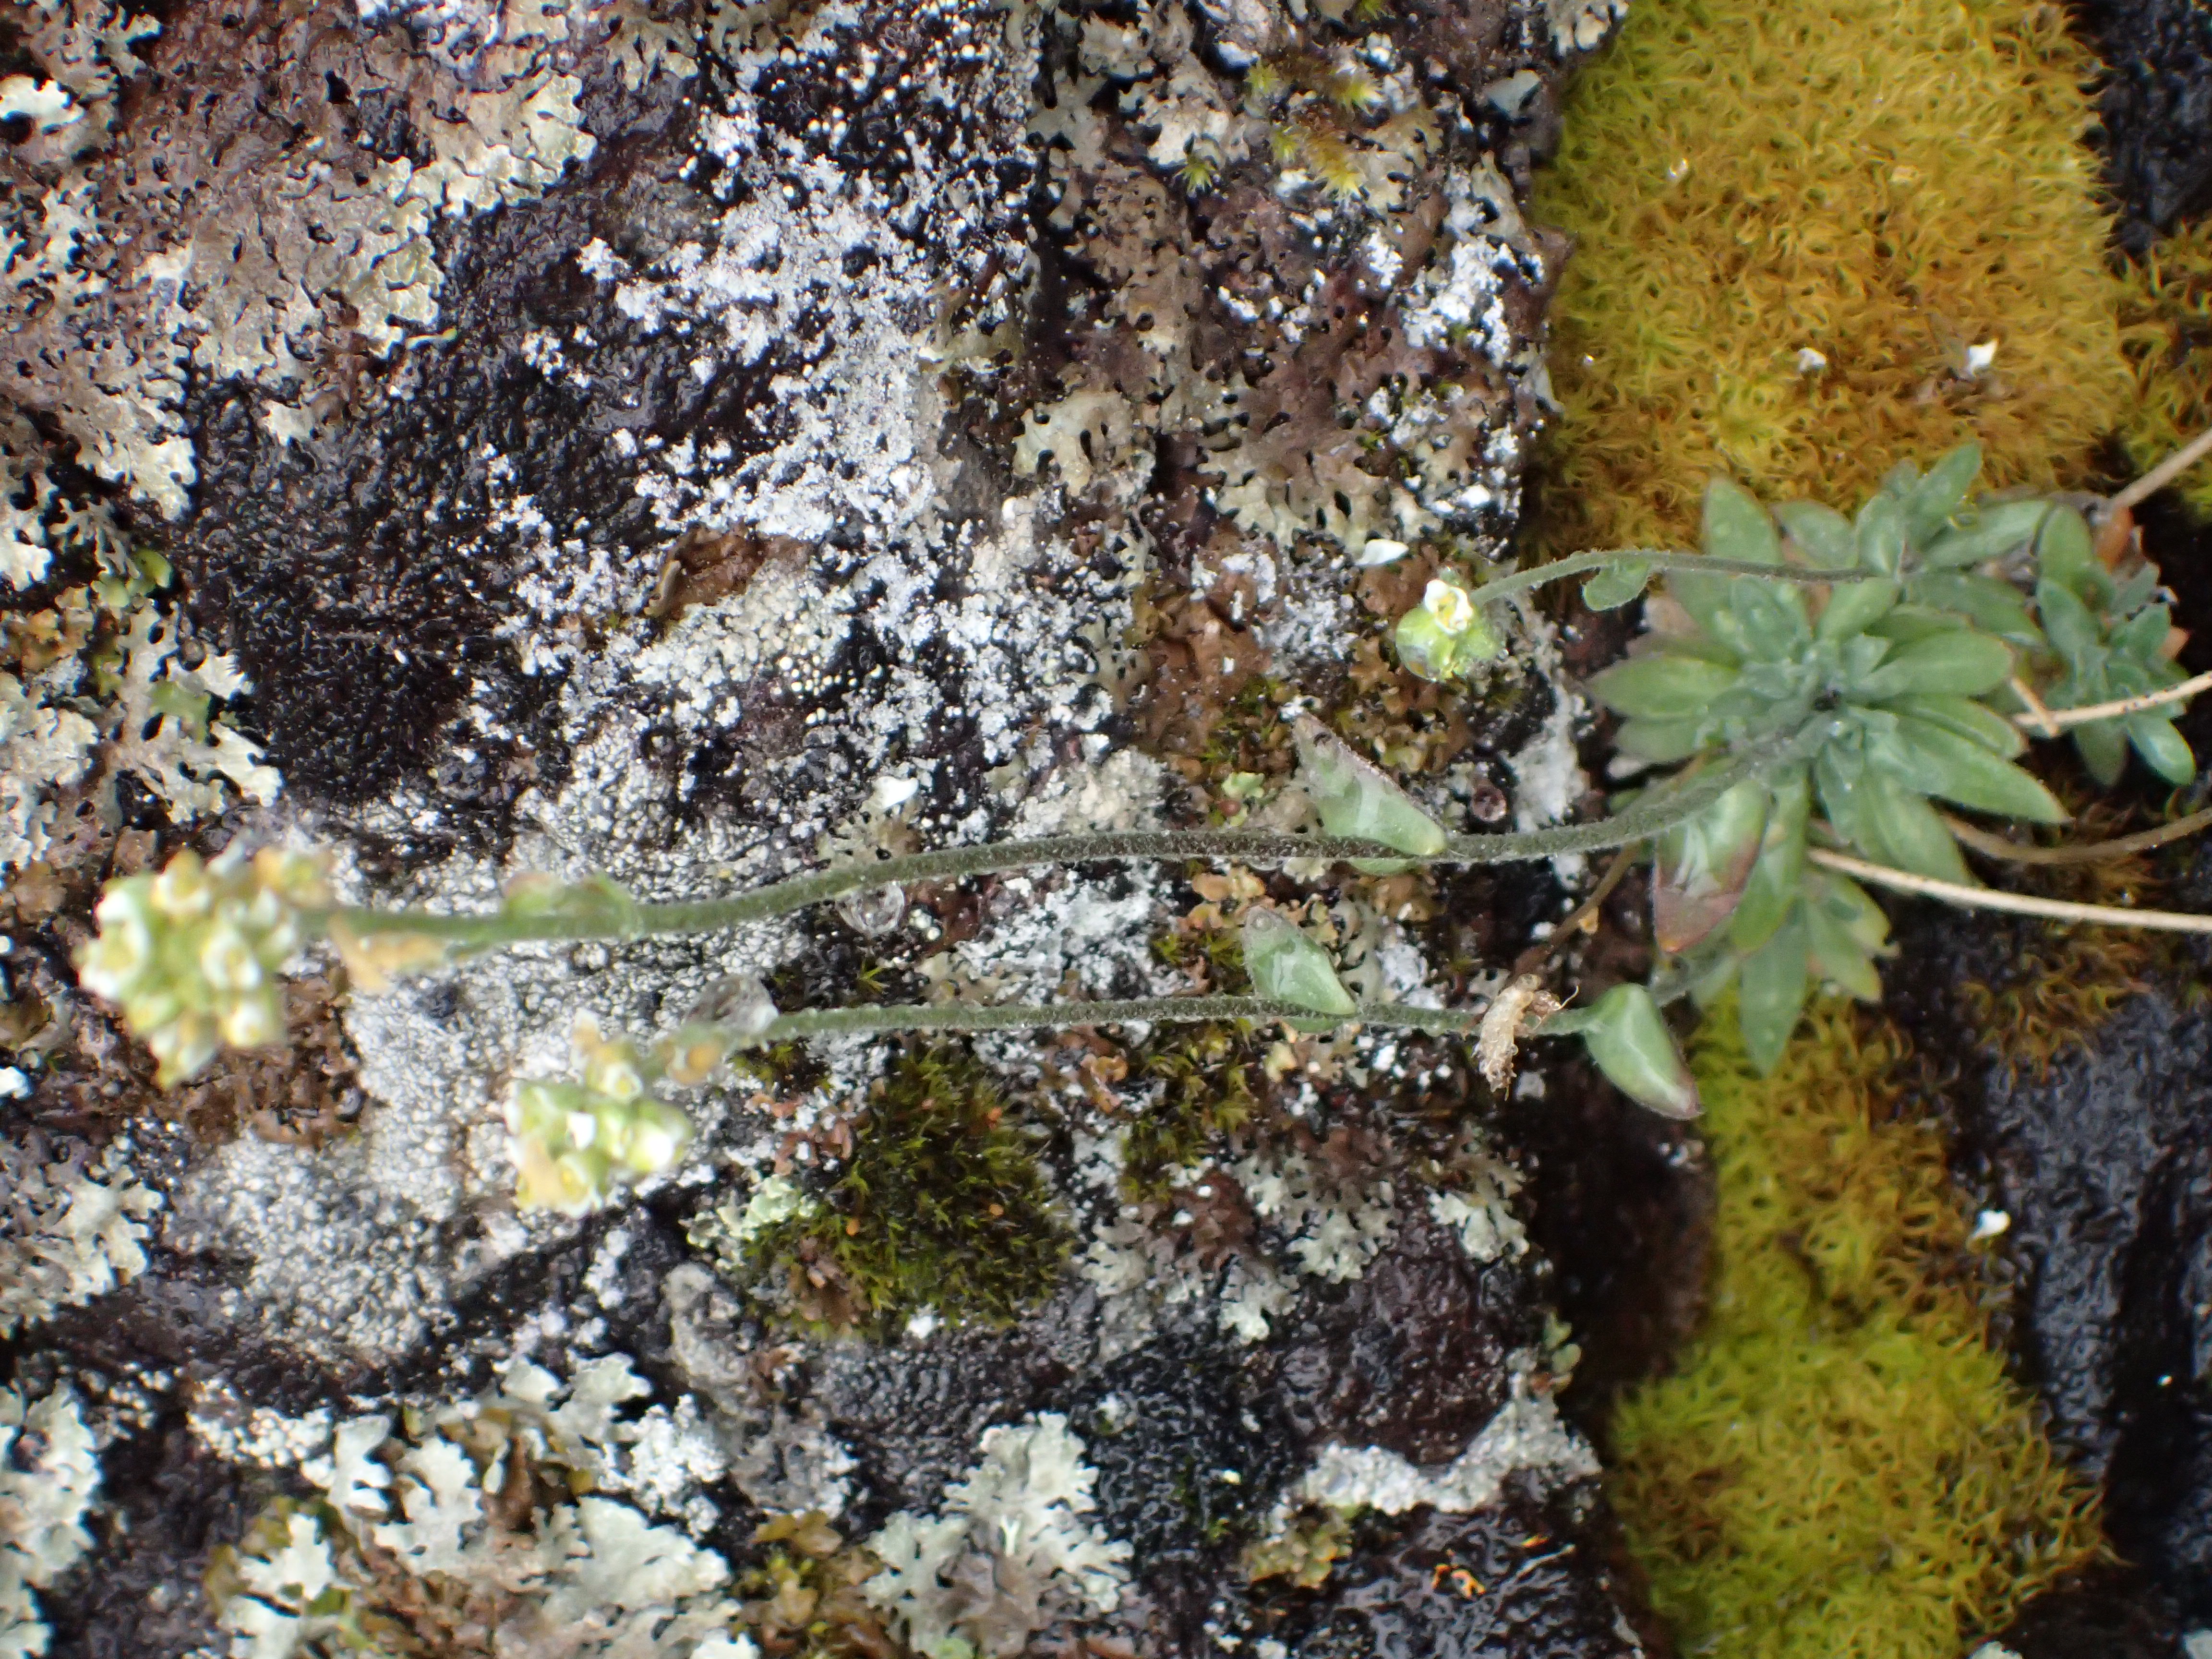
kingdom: Plantae
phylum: Tracheophyta
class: Magnoliopsida
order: Brassicales
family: Brassicaceae
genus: Draba
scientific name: Draba cinerea
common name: Ash-coloured whitlow-grass
